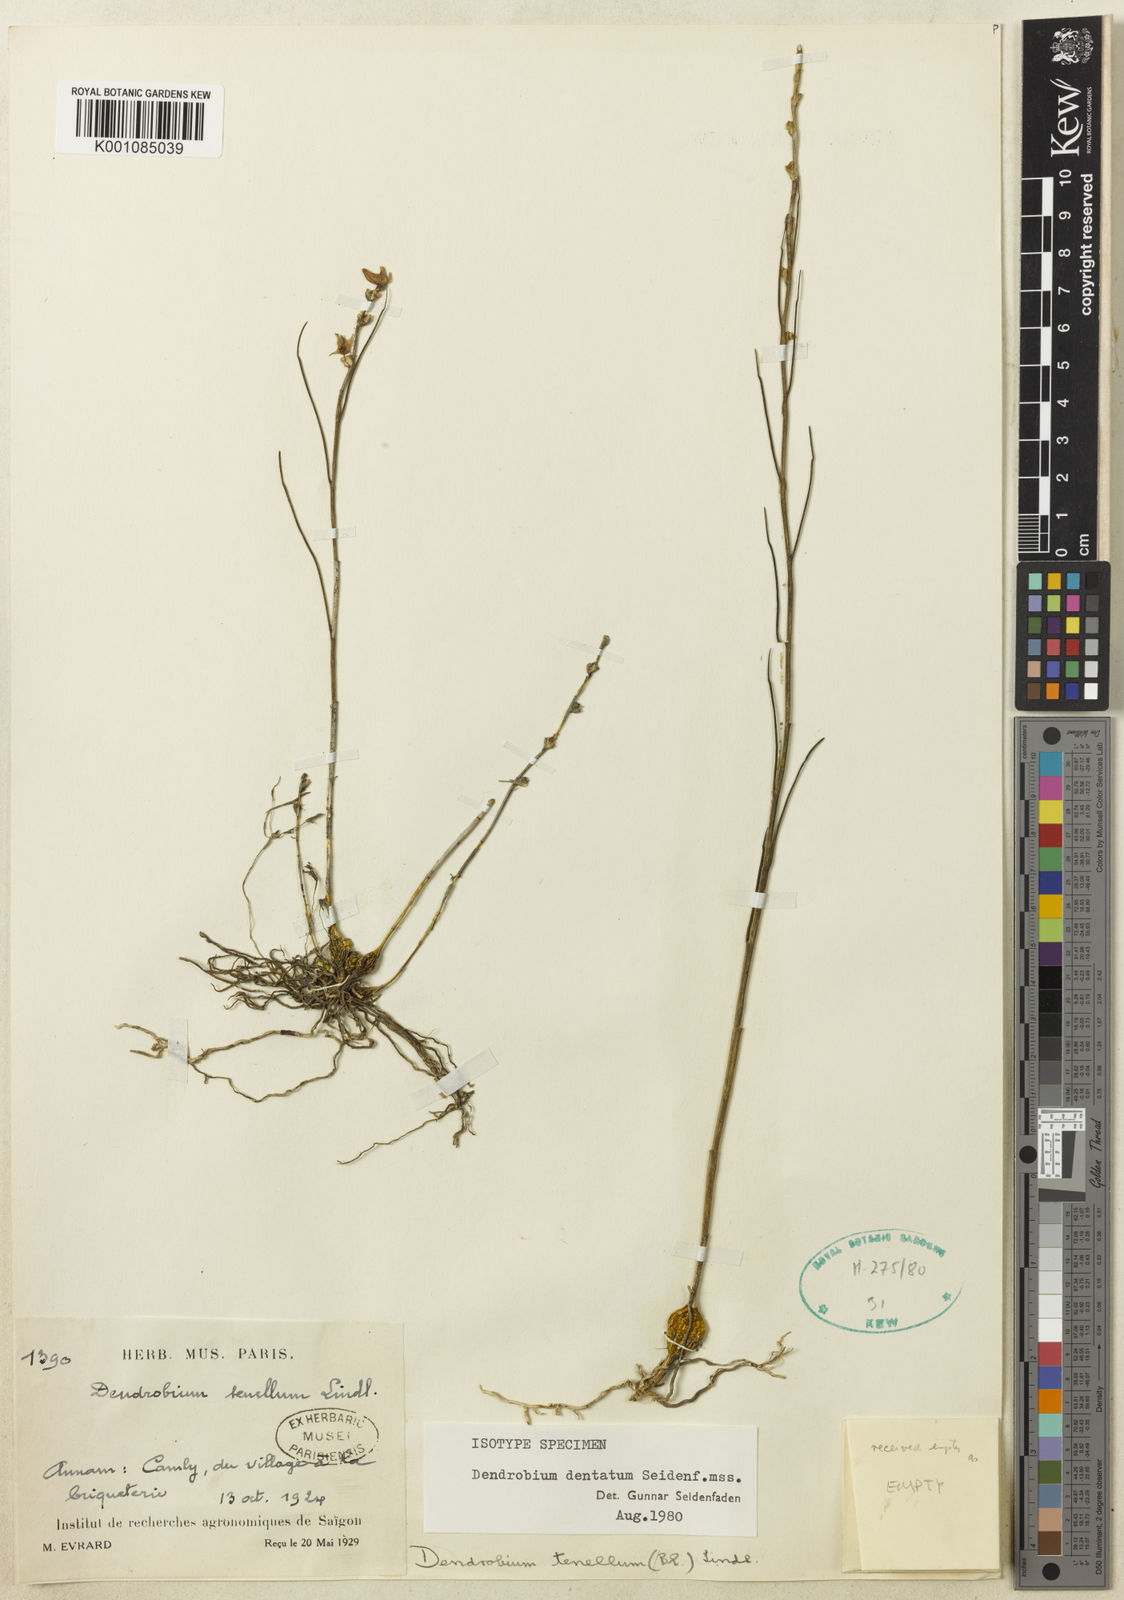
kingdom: Plantae
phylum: Tracheophyta
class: Liliopsida
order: Asparagales
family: Orchidaceae
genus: Dendrobium
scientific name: Dendrobium dentatum
